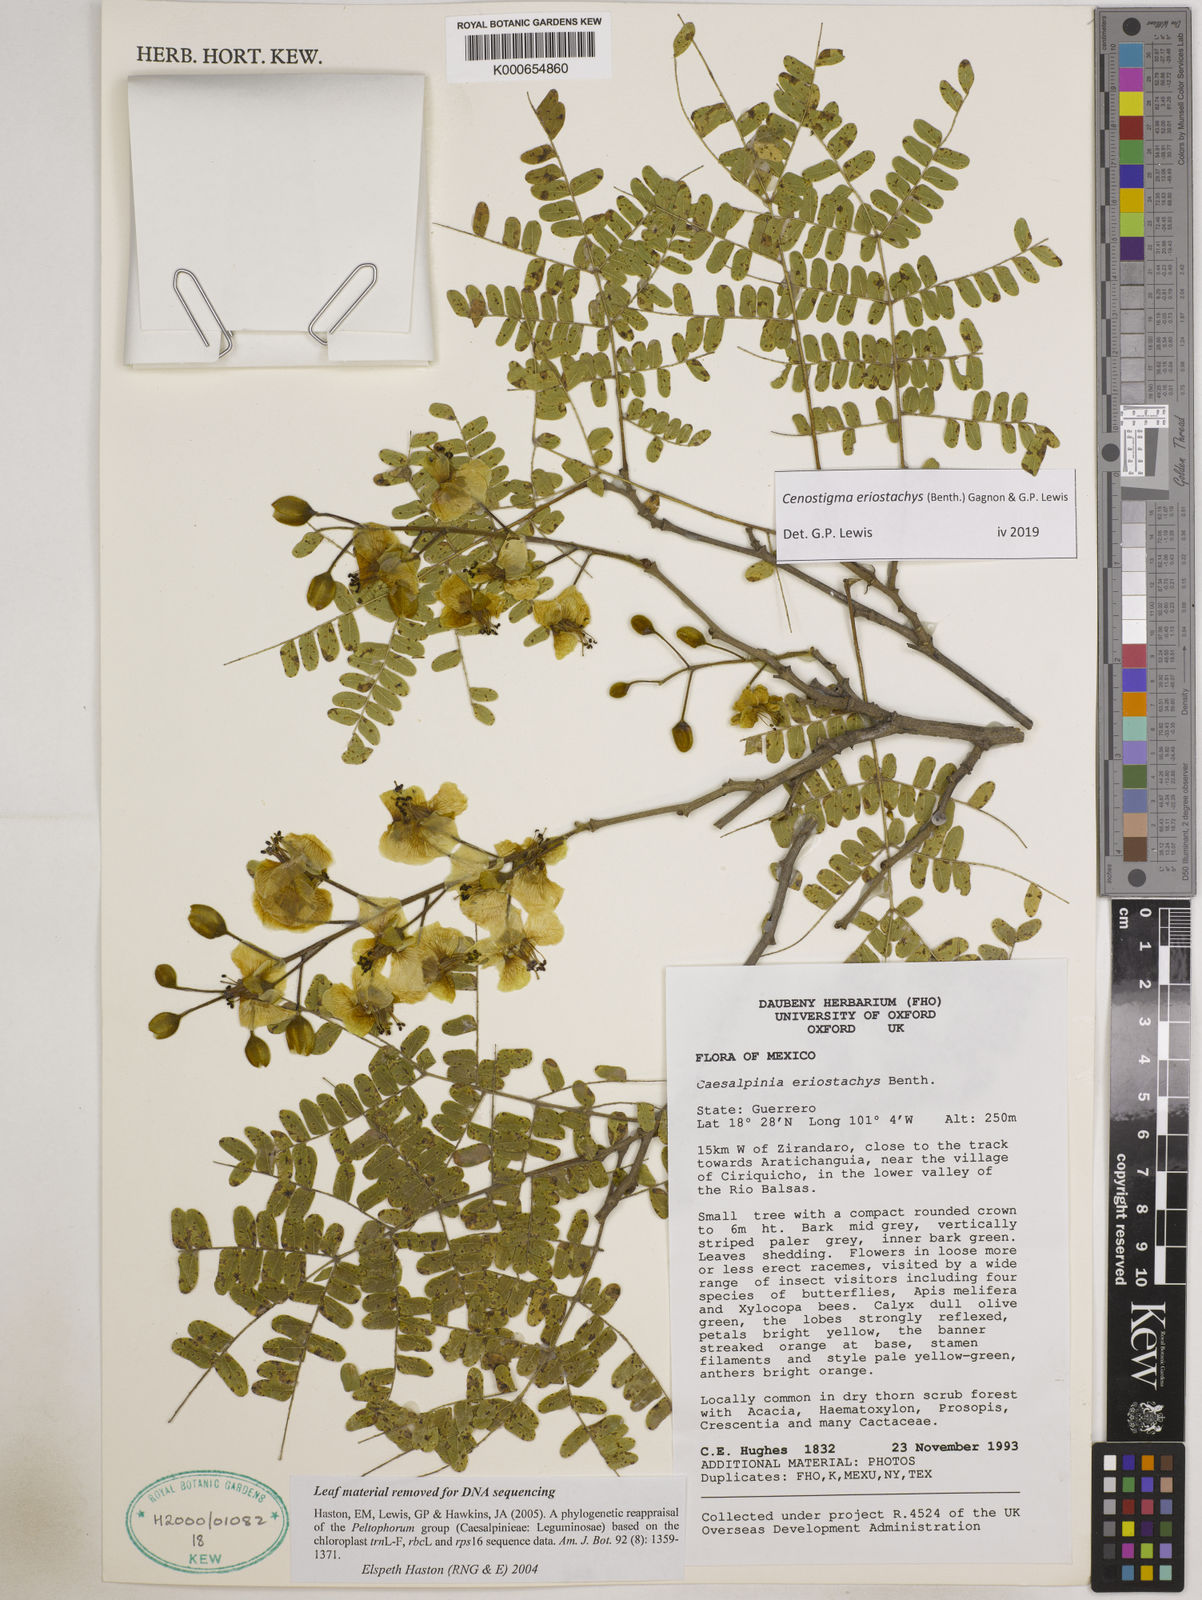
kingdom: Plantae
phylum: Tracheophyta
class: Magnoliopsida
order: Fabales
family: Fabaceae
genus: Cenostigma
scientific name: Cenostigma eriostachys
